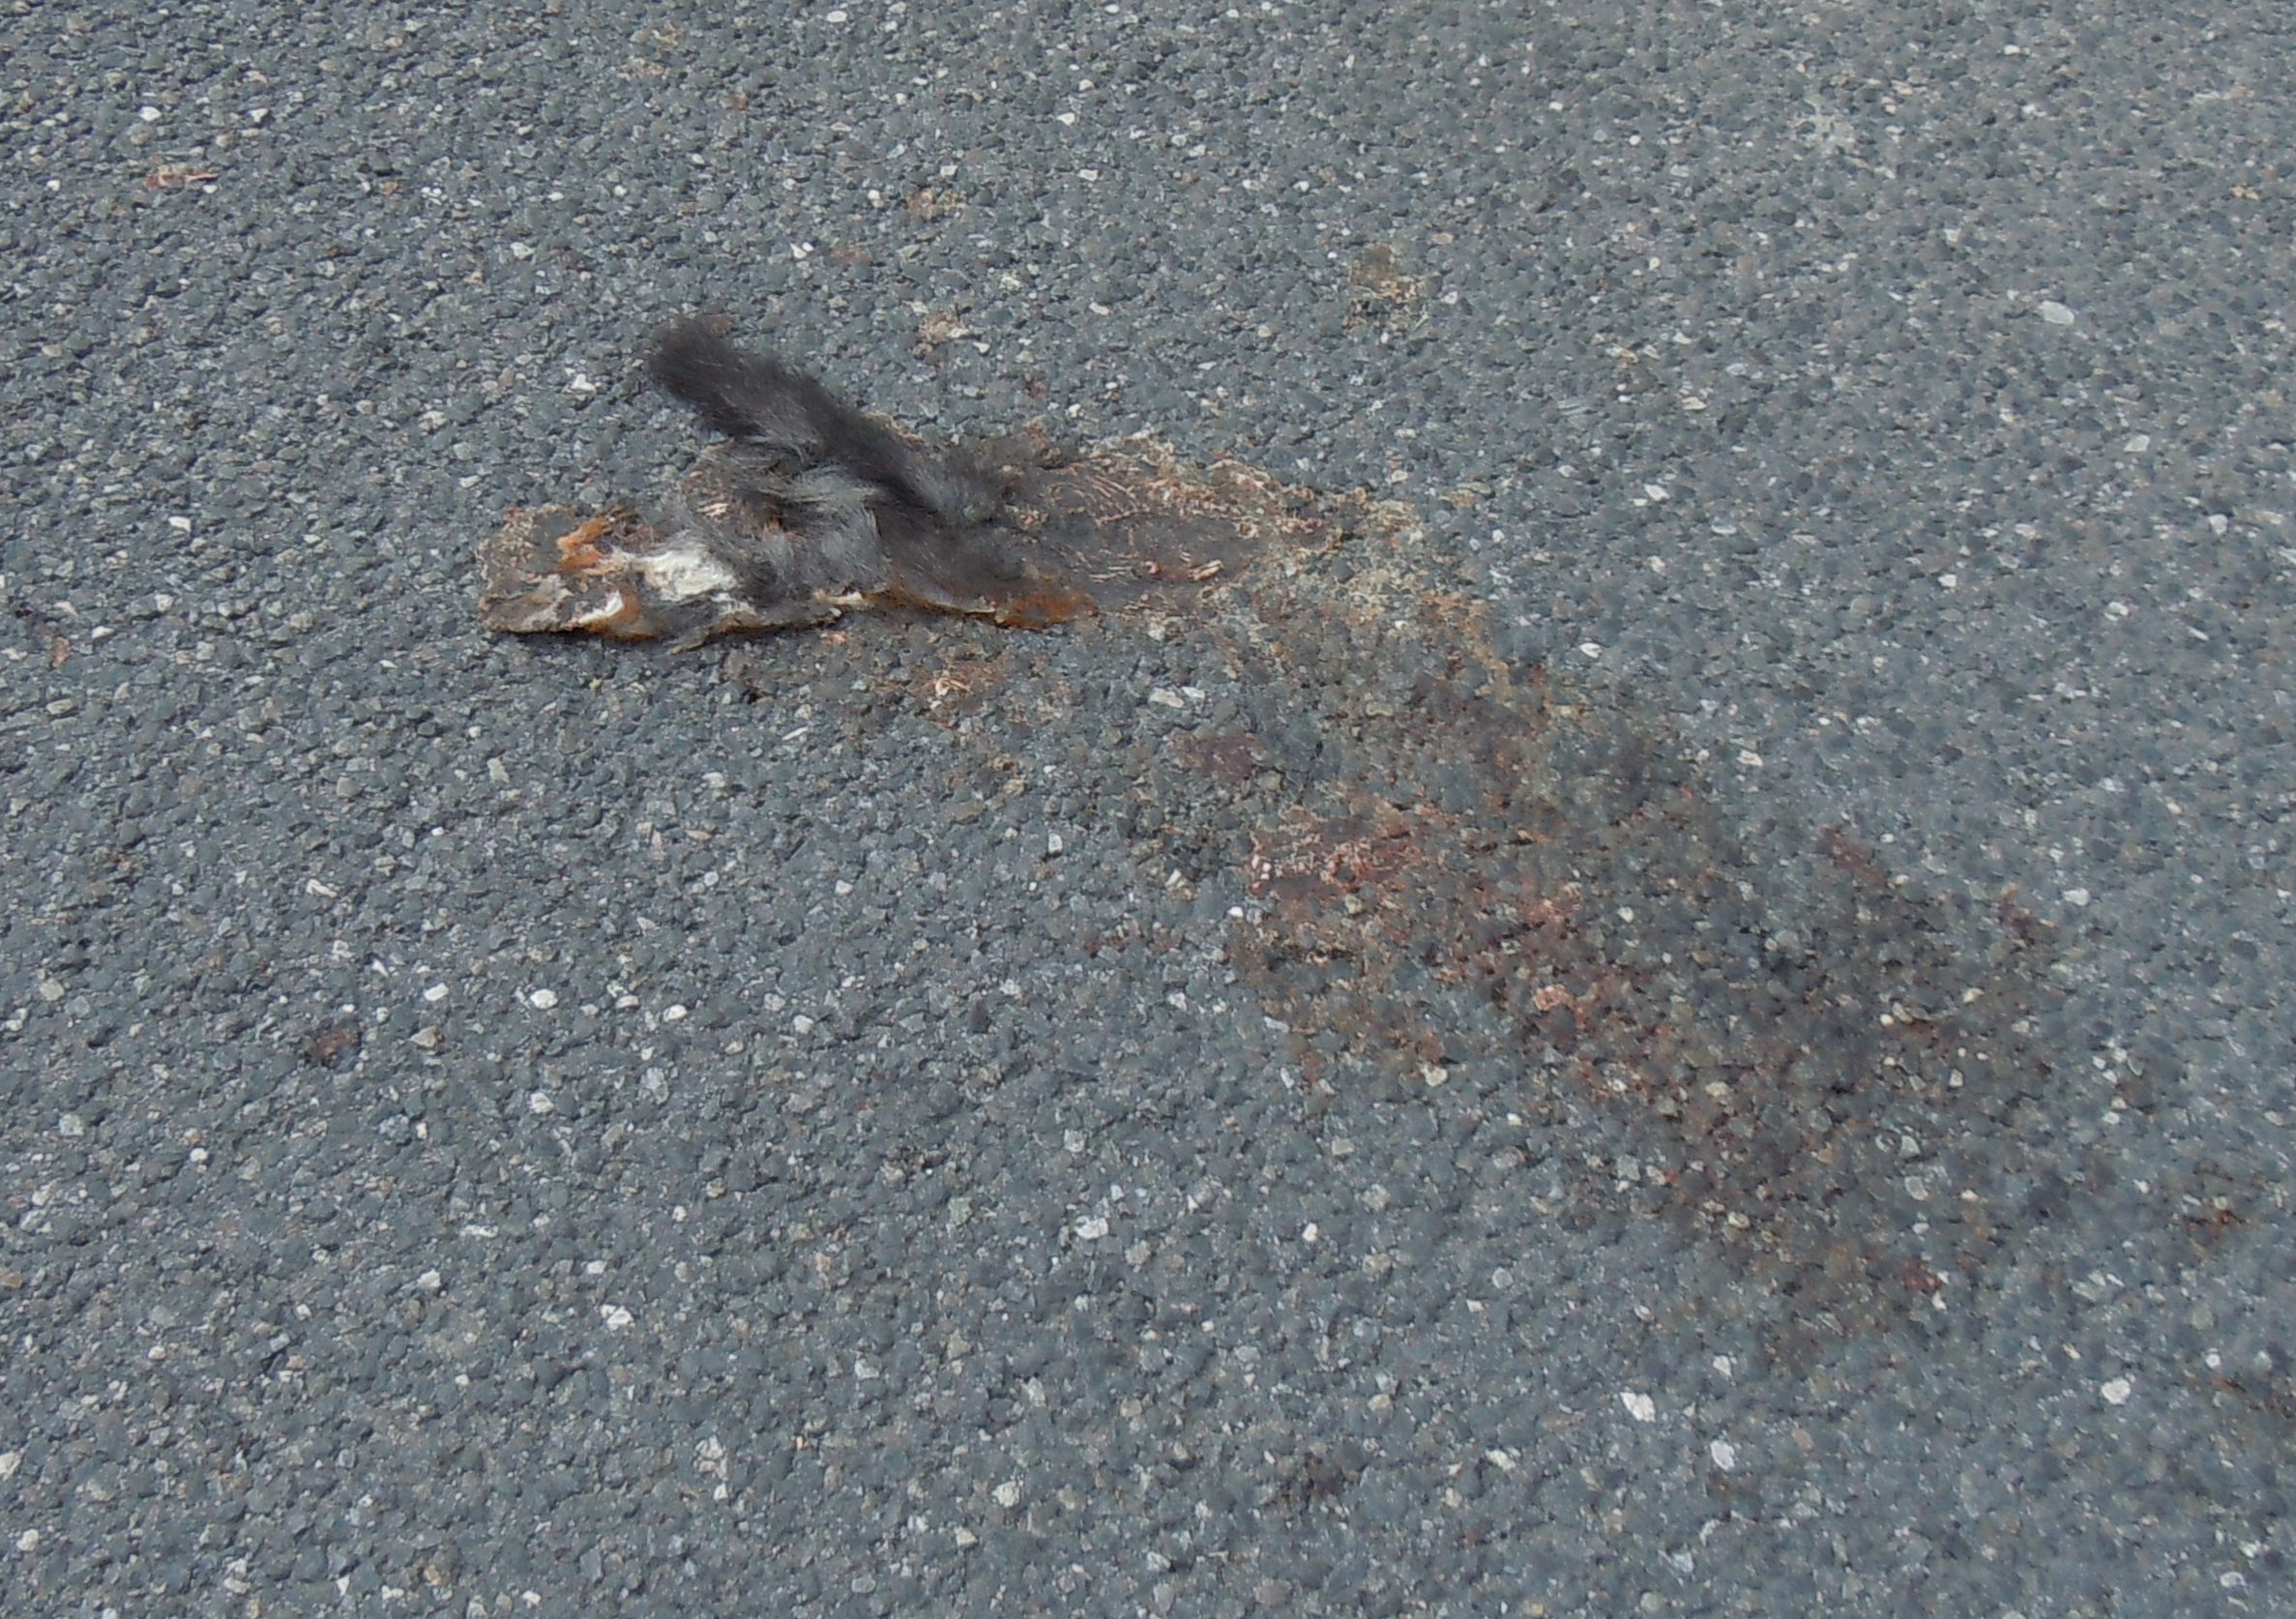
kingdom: Animalia
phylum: Chordata
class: Mammalia
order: Rodentia
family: Sciuridae
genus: Sciurus
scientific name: Sciurus vulgaris
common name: Eurasian red squirrel
